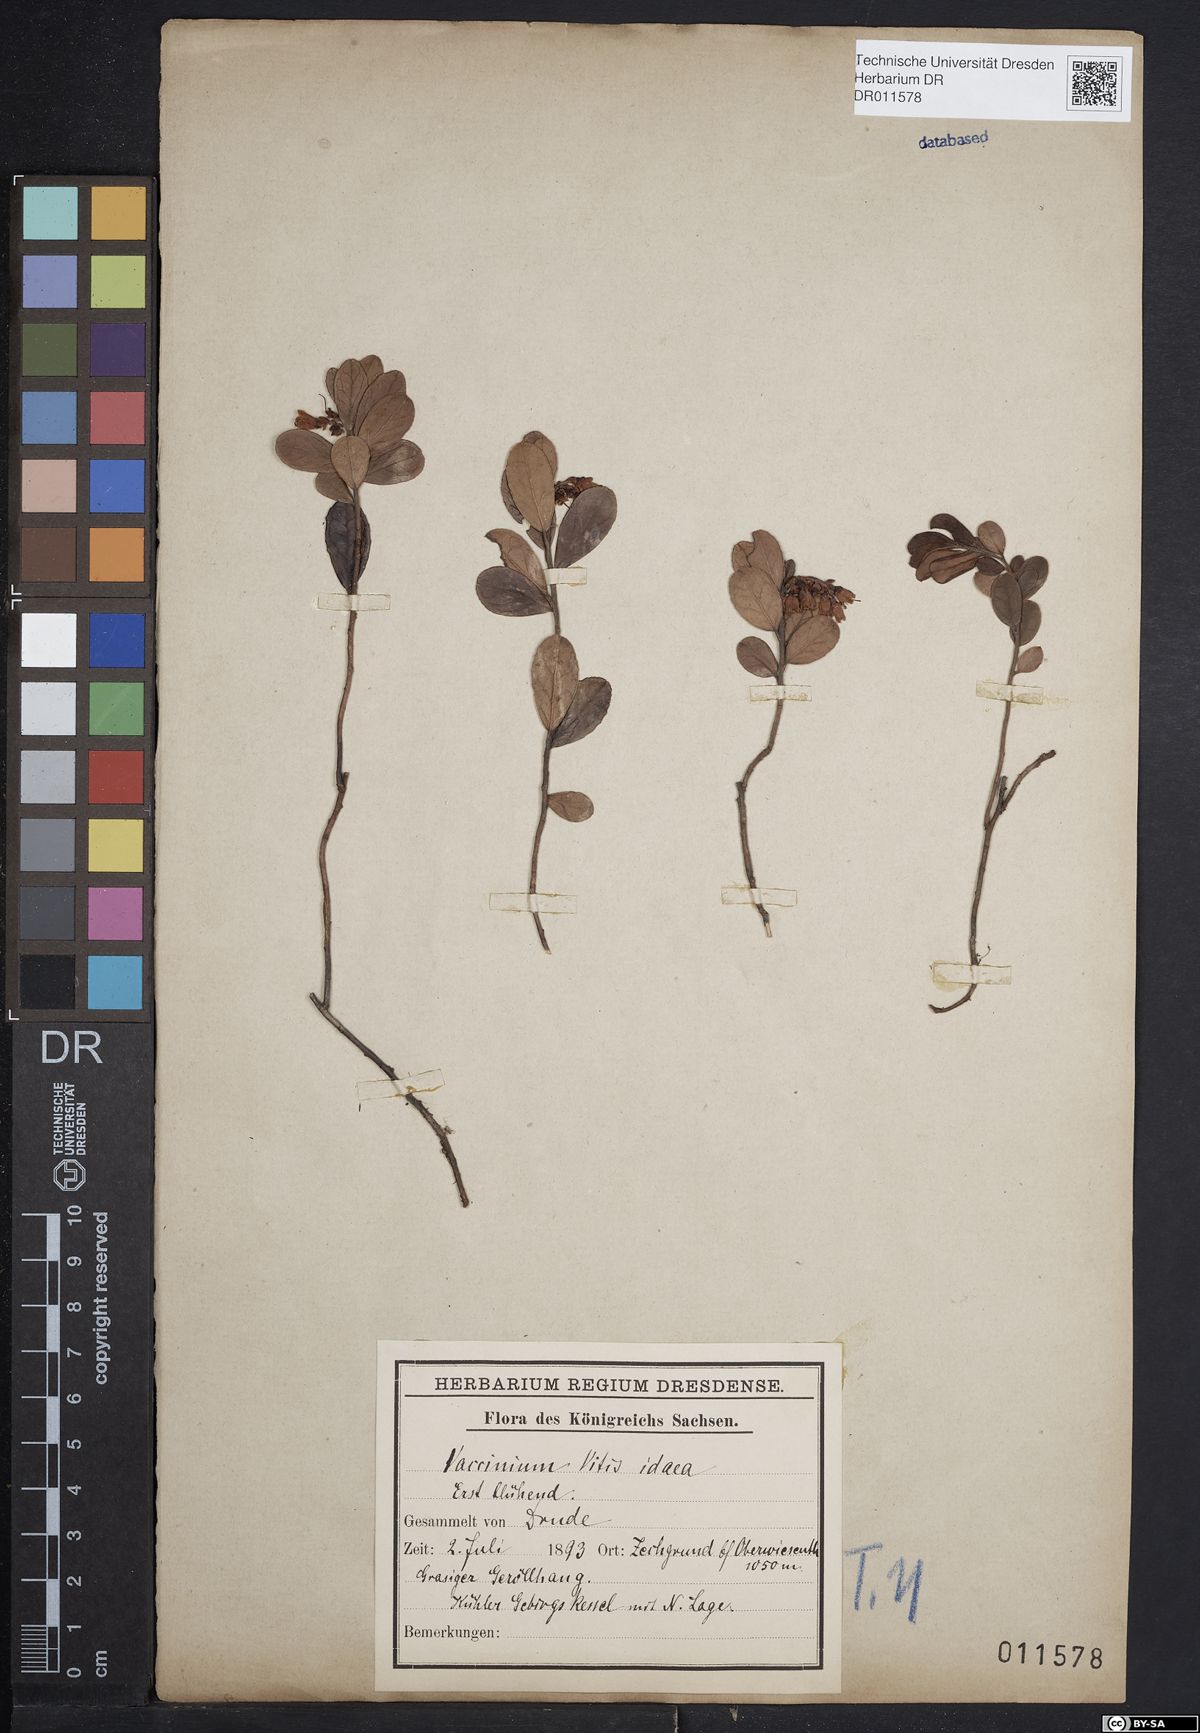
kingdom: Plantae
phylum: Tracheophyta
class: Magnoliopsida
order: Ericales
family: Ericaceae
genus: Vaccinium
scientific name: Vaccinium vitis-idaea
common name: Cowberry
